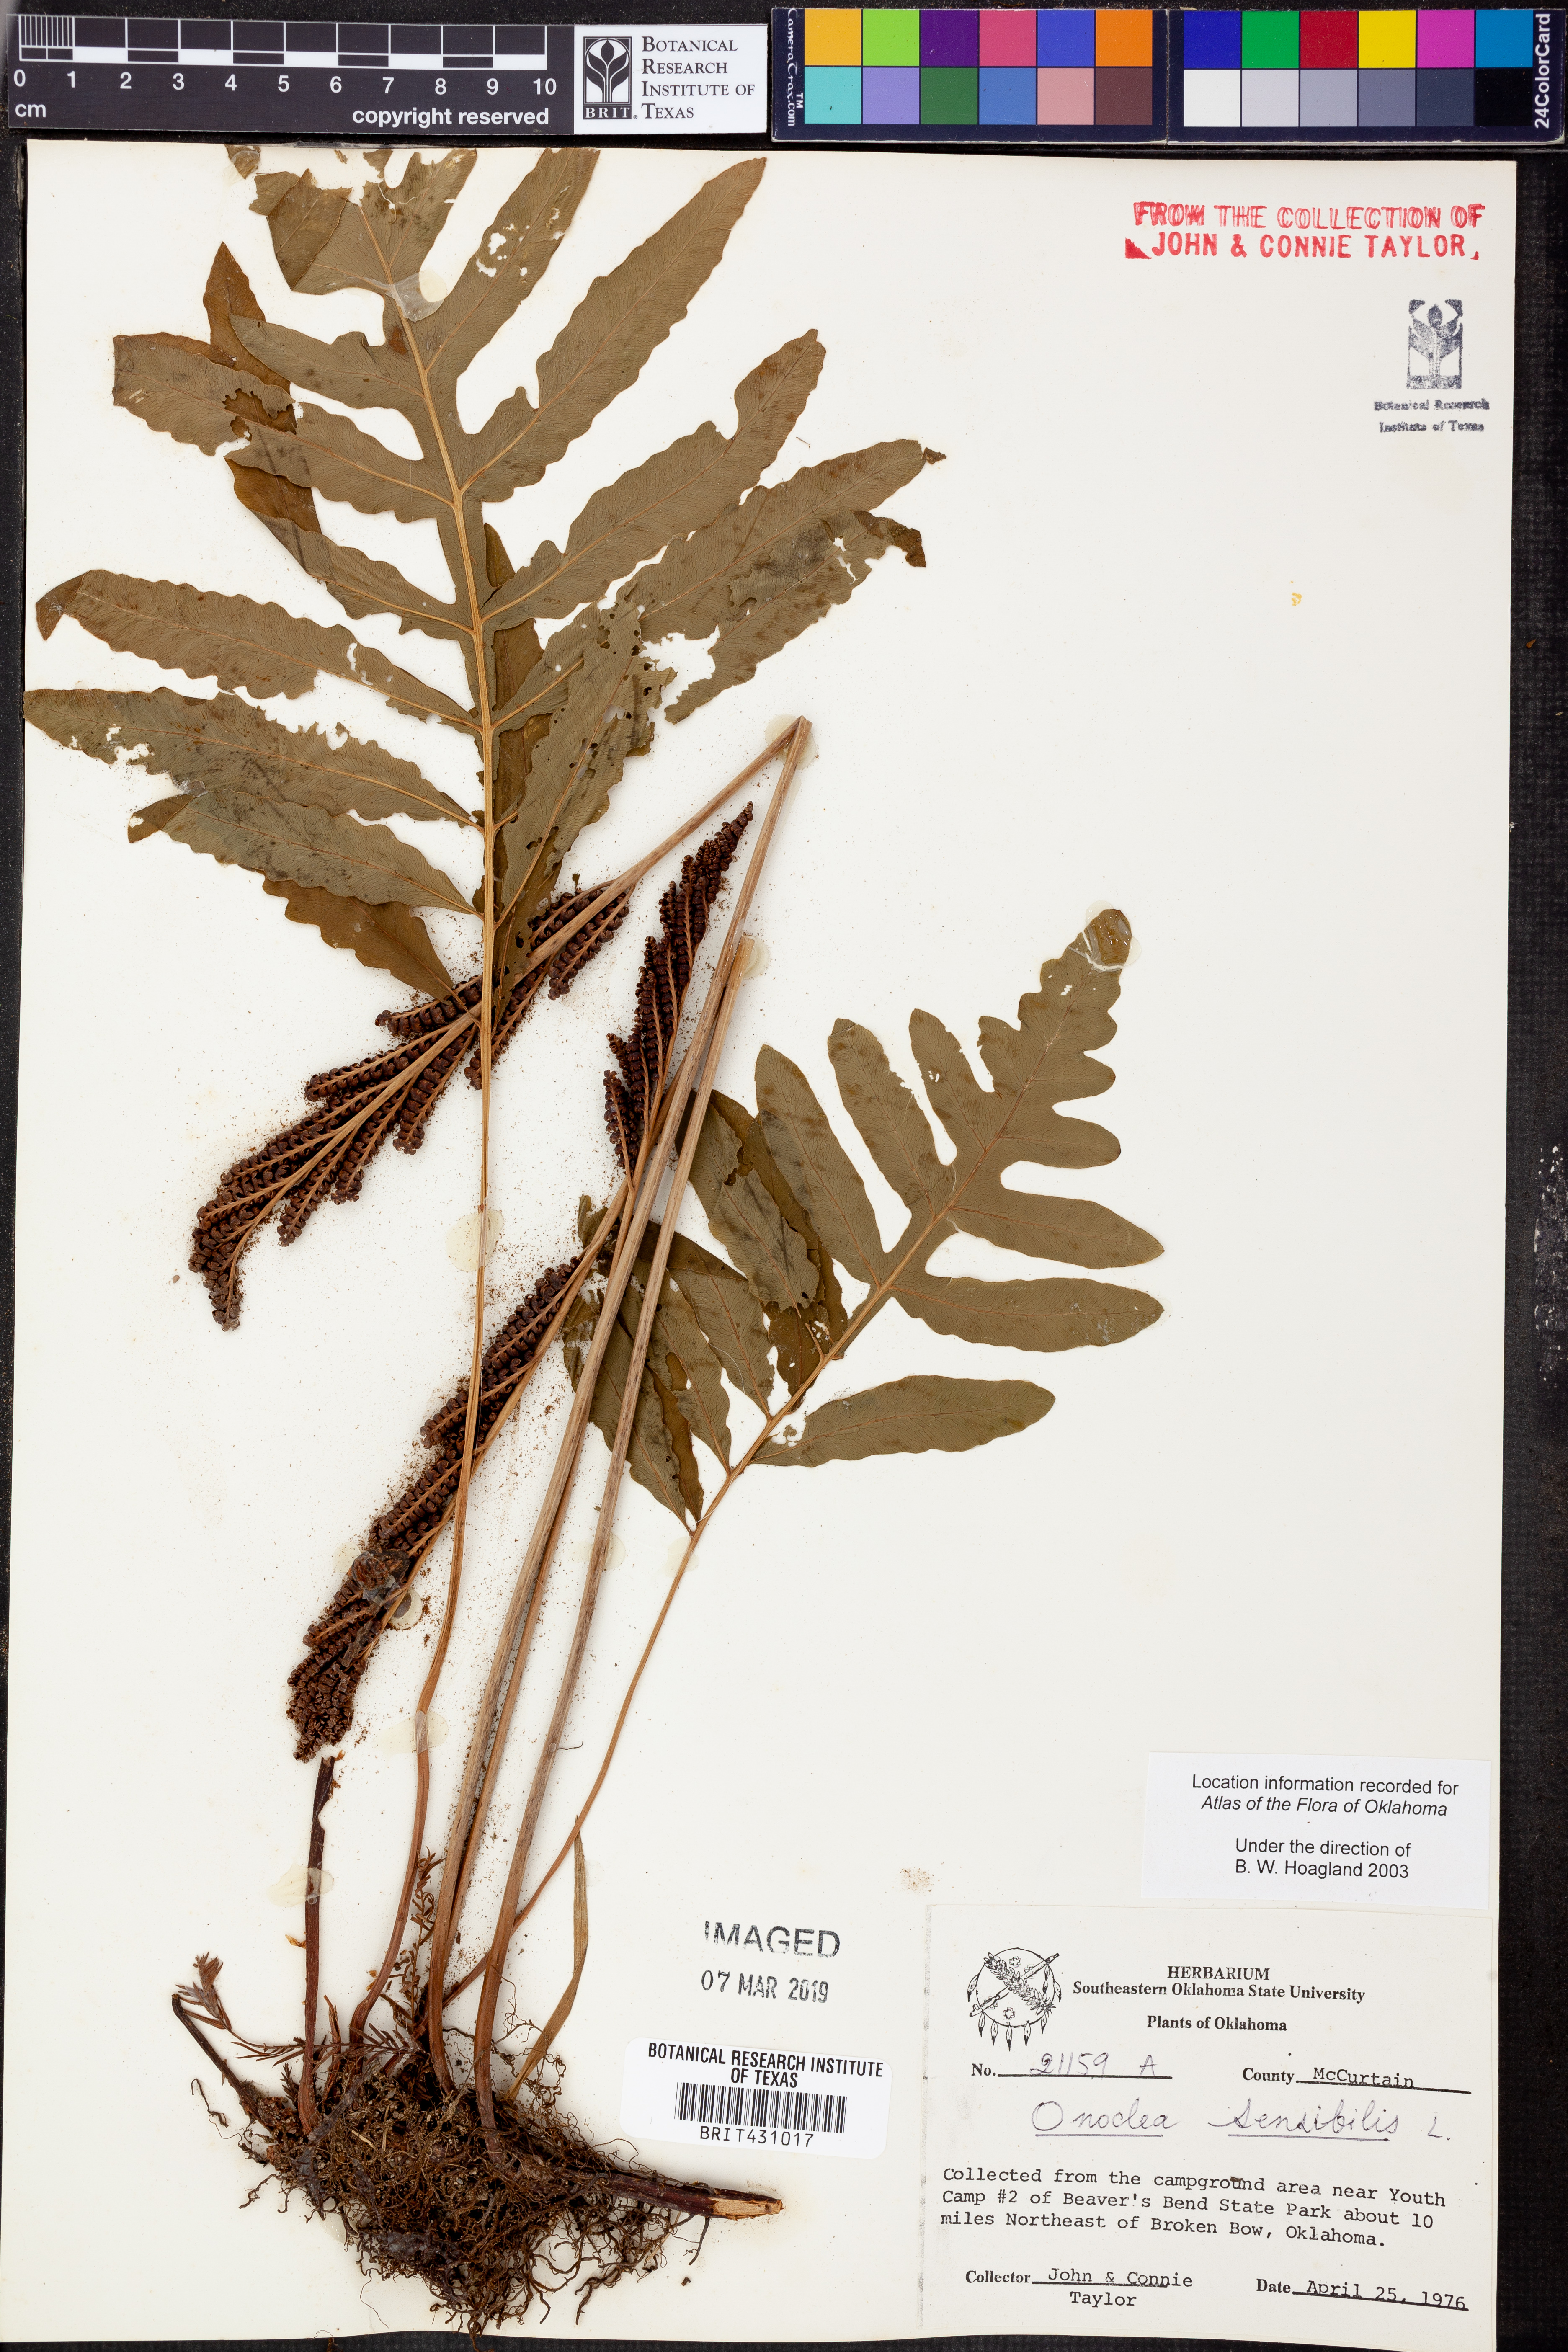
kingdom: Plantae
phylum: Tracheophyta
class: Polypodiopsida
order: Polypodiales
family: Onocleaceae
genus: Onoclea
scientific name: Onoclea sensibilis
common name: Sensitive fern
